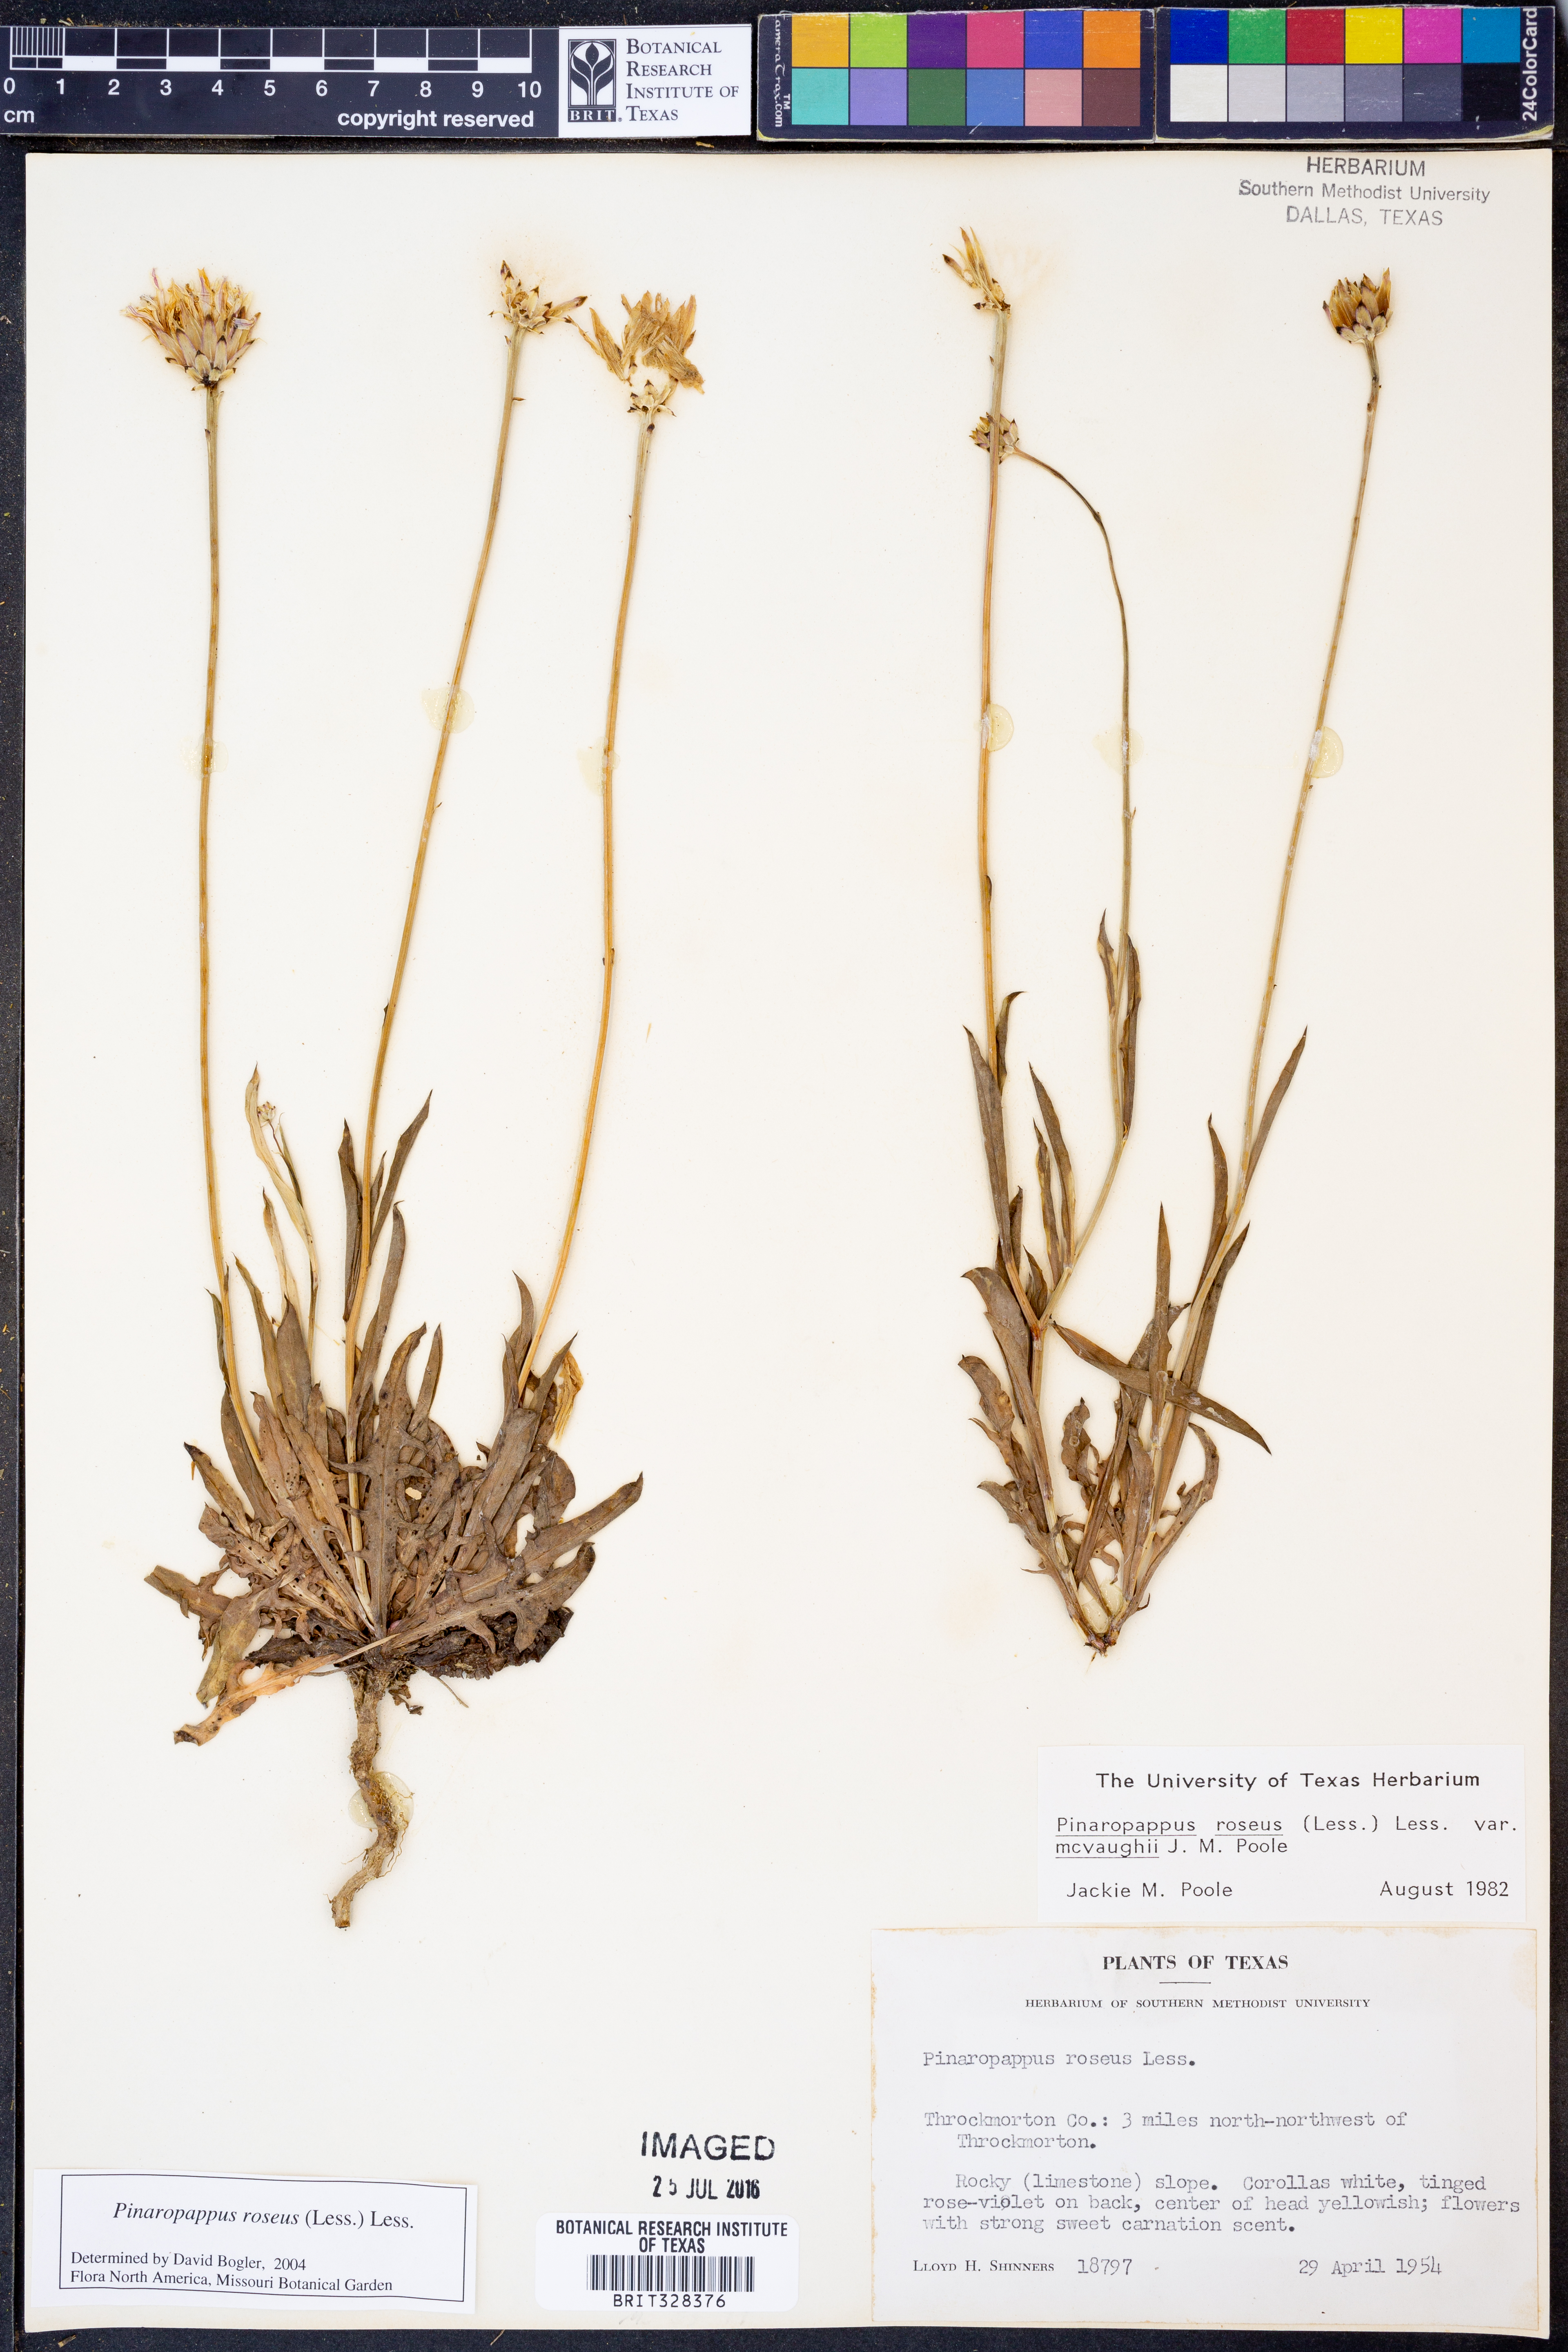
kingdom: Plantae
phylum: Tracheophyta
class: Magnoliopsida
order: Asterales
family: Asteraceae
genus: Pinaropappus
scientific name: Pinaropappus roseus
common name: Rock-lettuce
